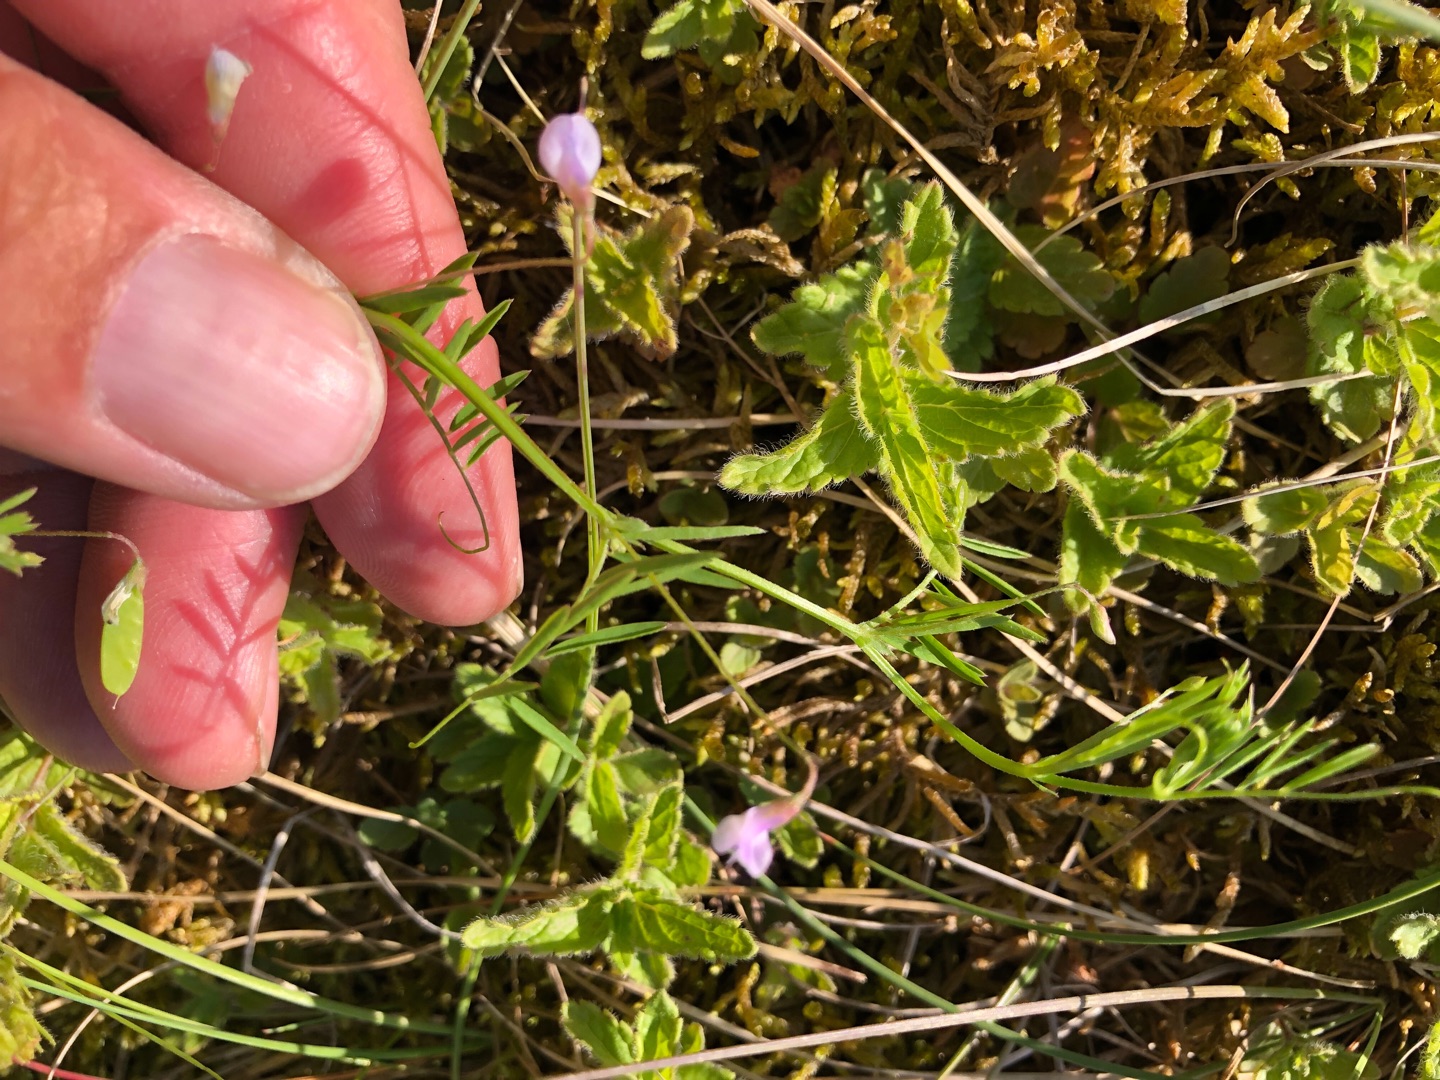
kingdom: Plantae
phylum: Tracheophyta
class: Magnoliopsida
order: Fabales
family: Fabaceae
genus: Vicia
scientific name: Vicia tetrasperma
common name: Tadder-vikke
